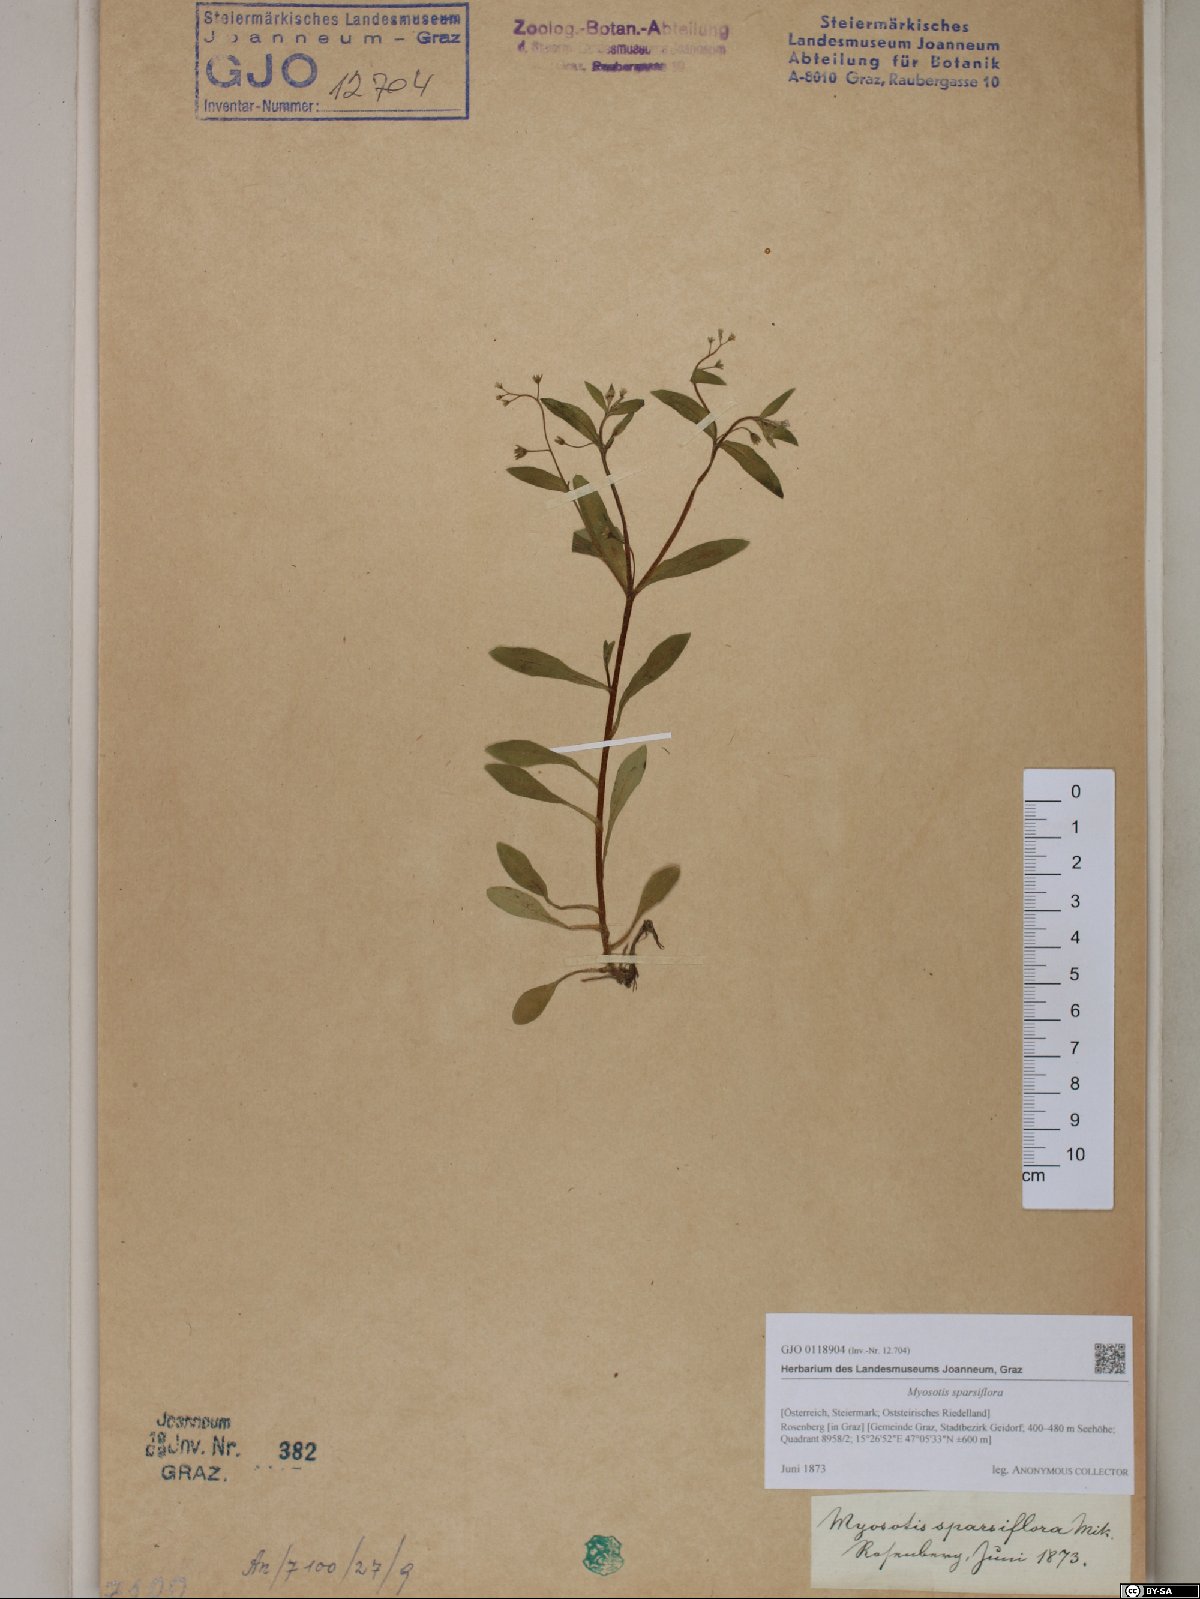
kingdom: Plantae
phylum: Tracheophyta
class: Magnoliopsida
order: Boraginales
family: Boraginaceae
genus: Myosotis
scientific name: Myosotis sparsiflora
